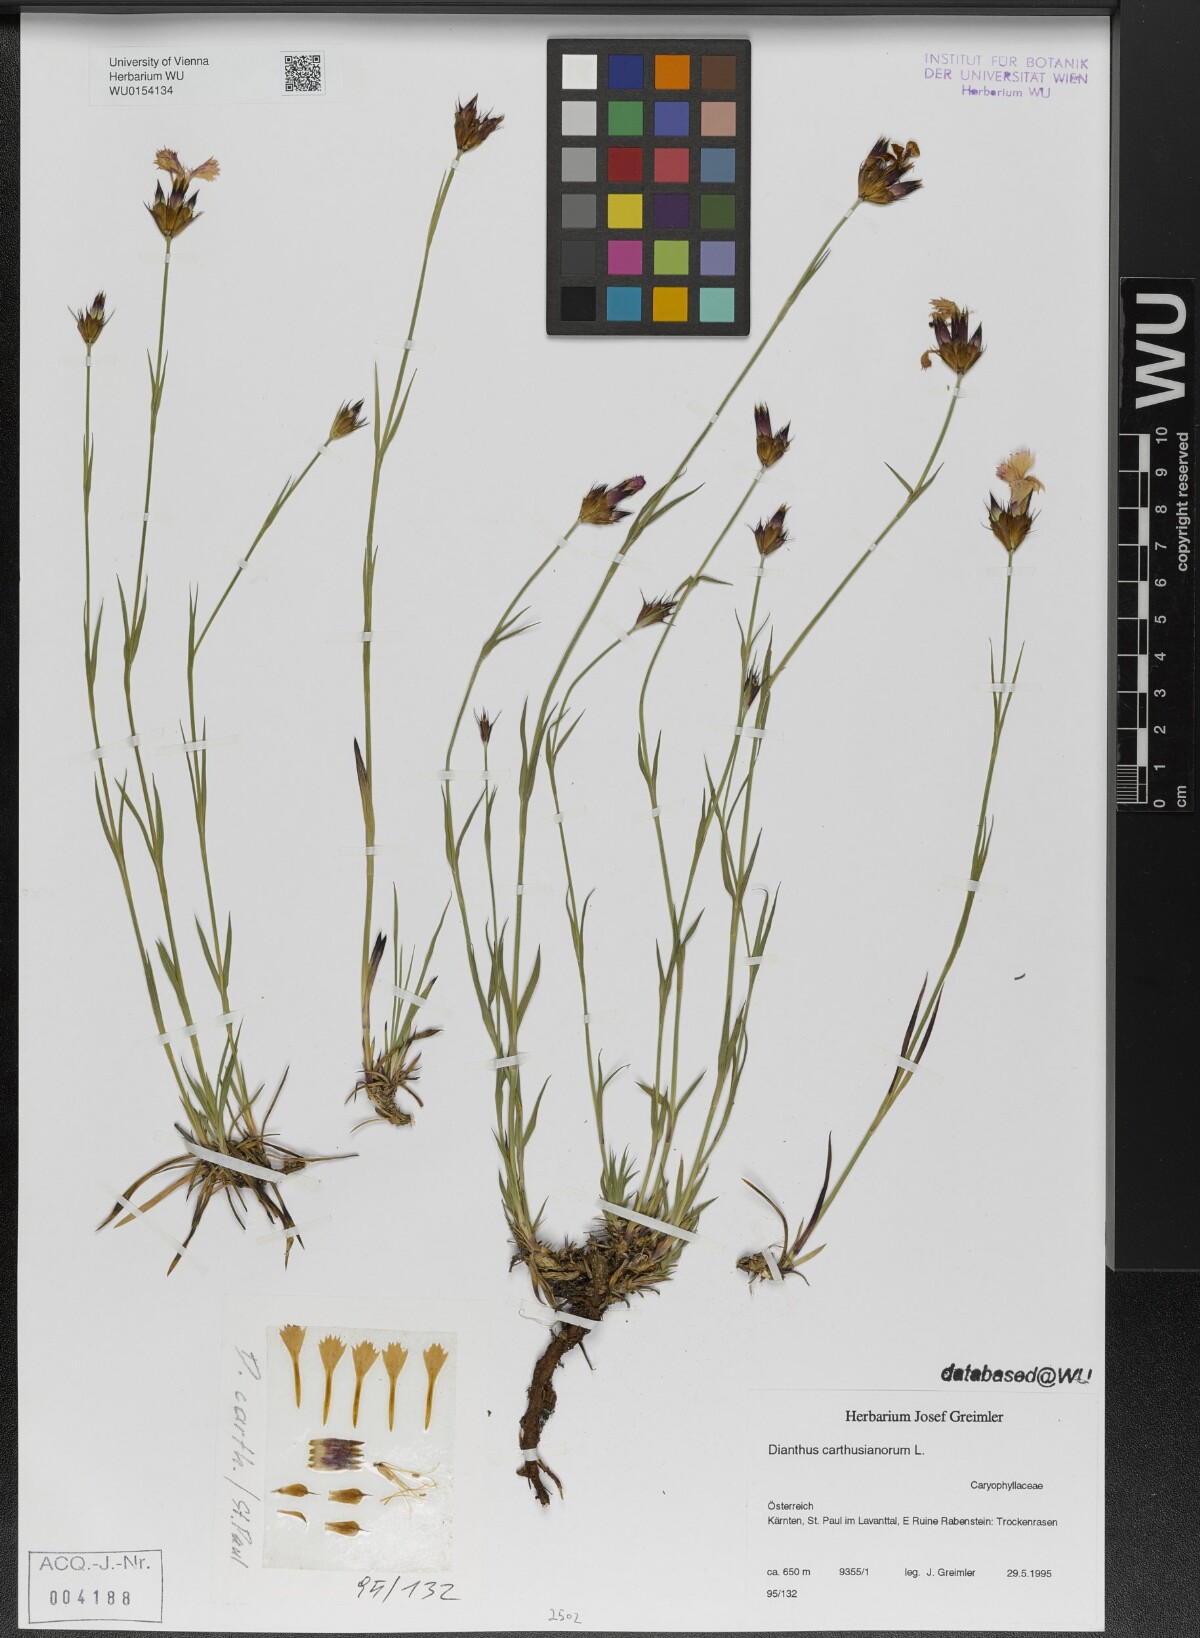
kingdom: Plantae
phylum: Tracheophyta
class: Magnoliopsida
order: Caryophyllales
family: Caryophyllaceae
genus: Dianthus
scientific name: Dianthus carthusianorum
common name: Carthusian pink
